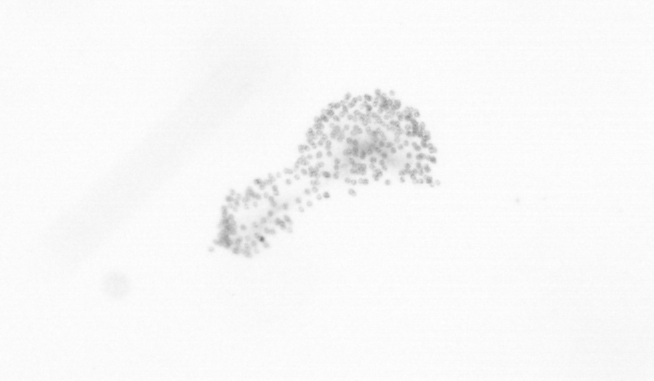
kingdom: Chromista
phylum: Ochrophyta
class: Bacillariophyceae
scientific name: Bacillariophyceae
